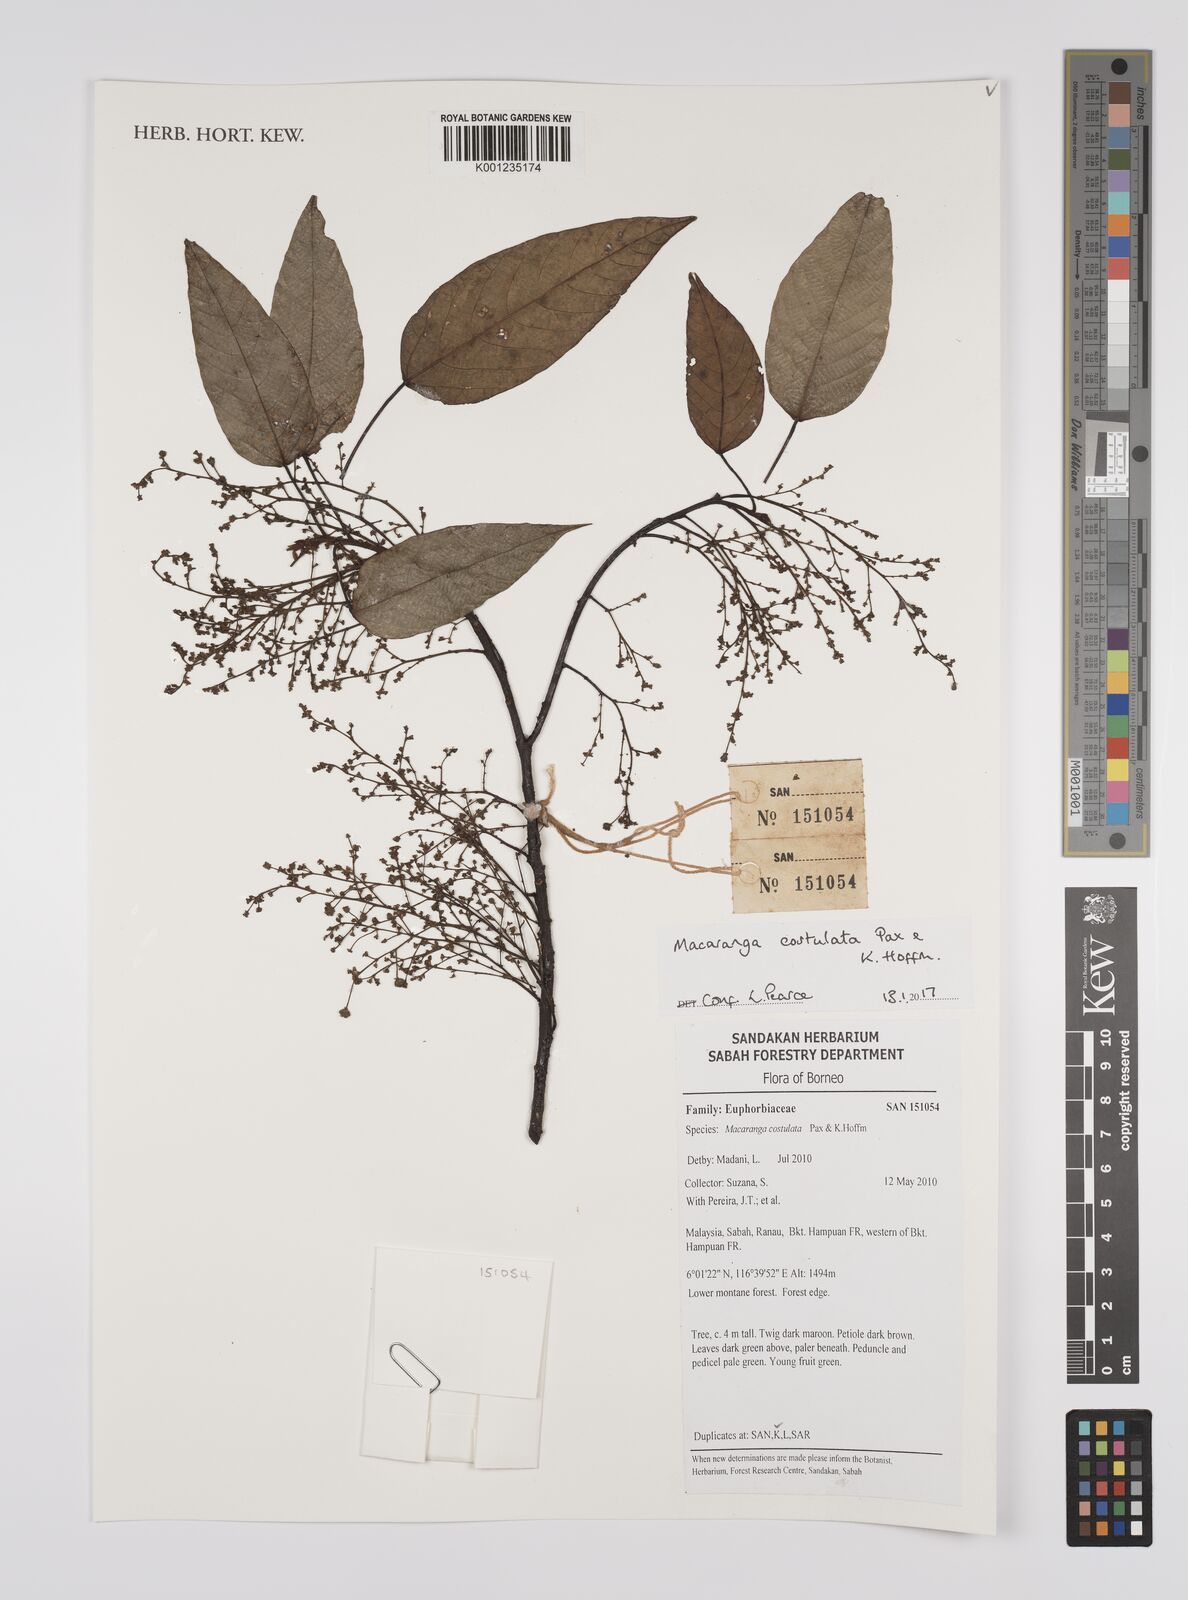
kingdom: Plantae
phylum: Tracheophyta
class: Magnoliopsida
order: Malpighiales
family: Euphorbiaceae
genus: Macaranga
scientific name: Macaranga costulata
